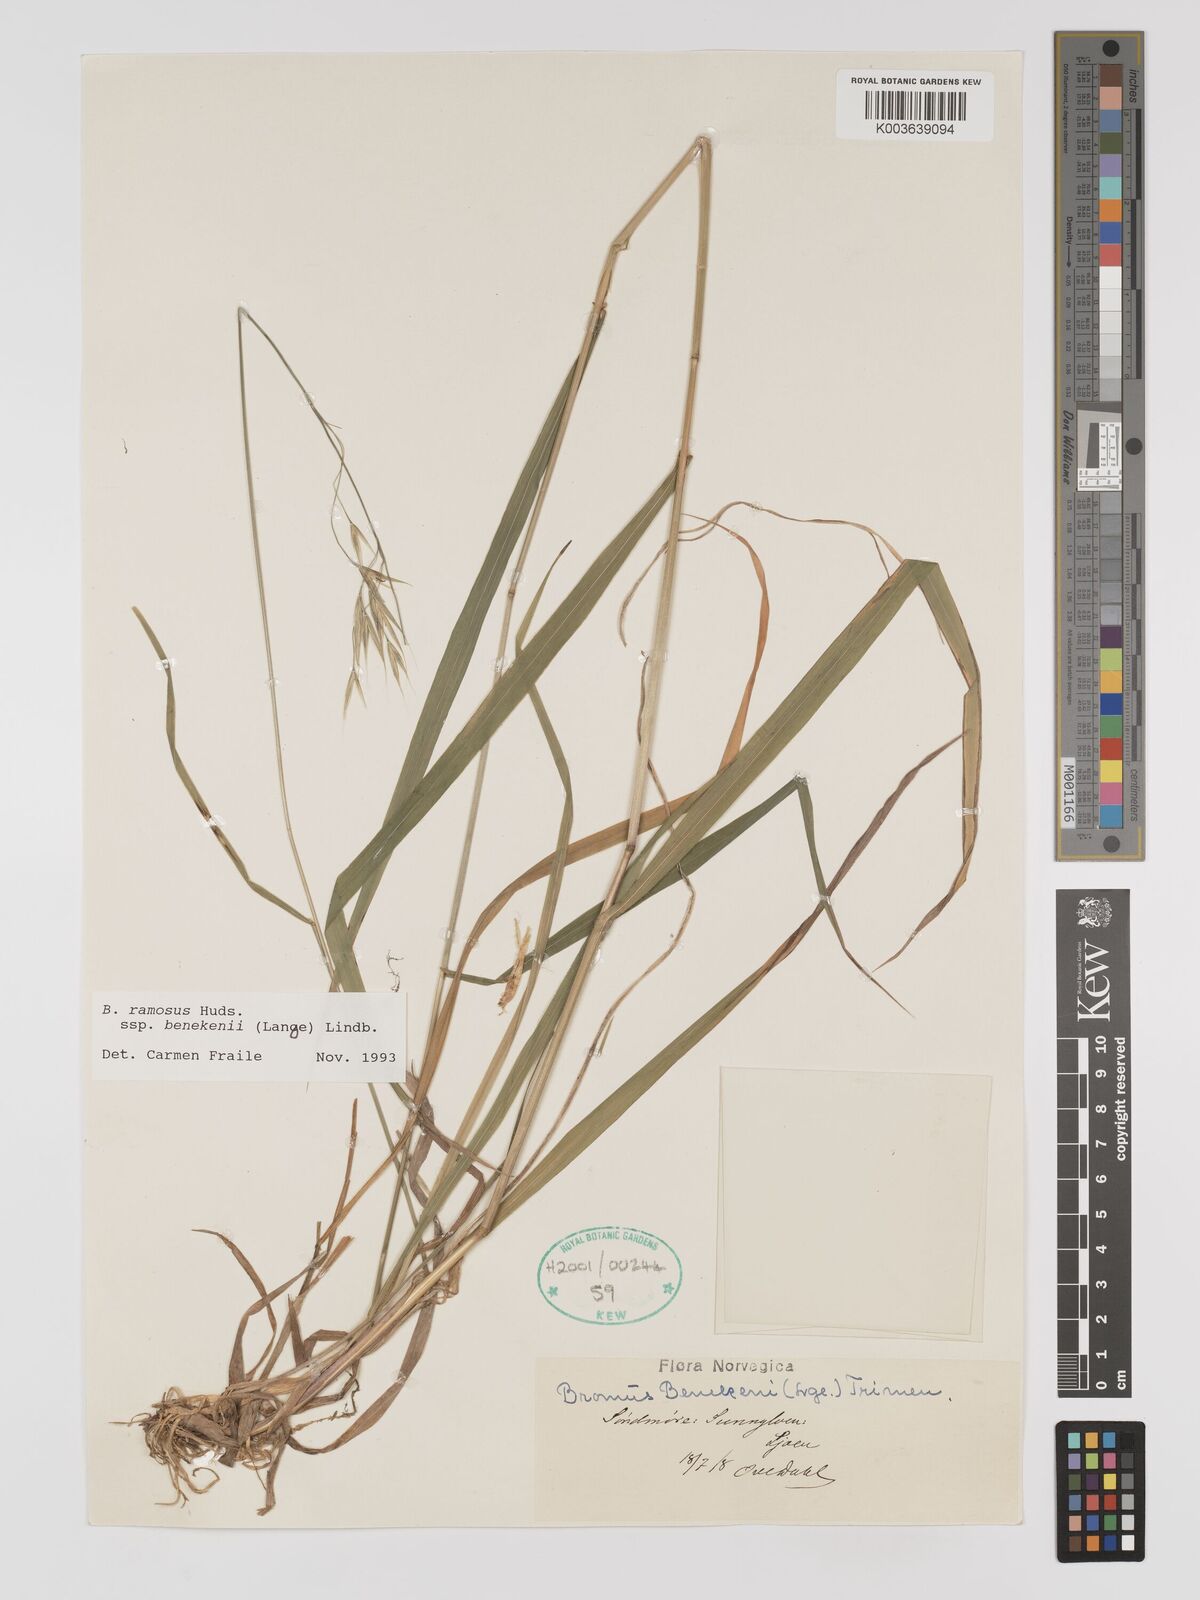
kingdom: Plantae
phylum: Tracheophyta
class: Liliopsida
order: Poales
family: Poaceae
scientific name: Poaceae
